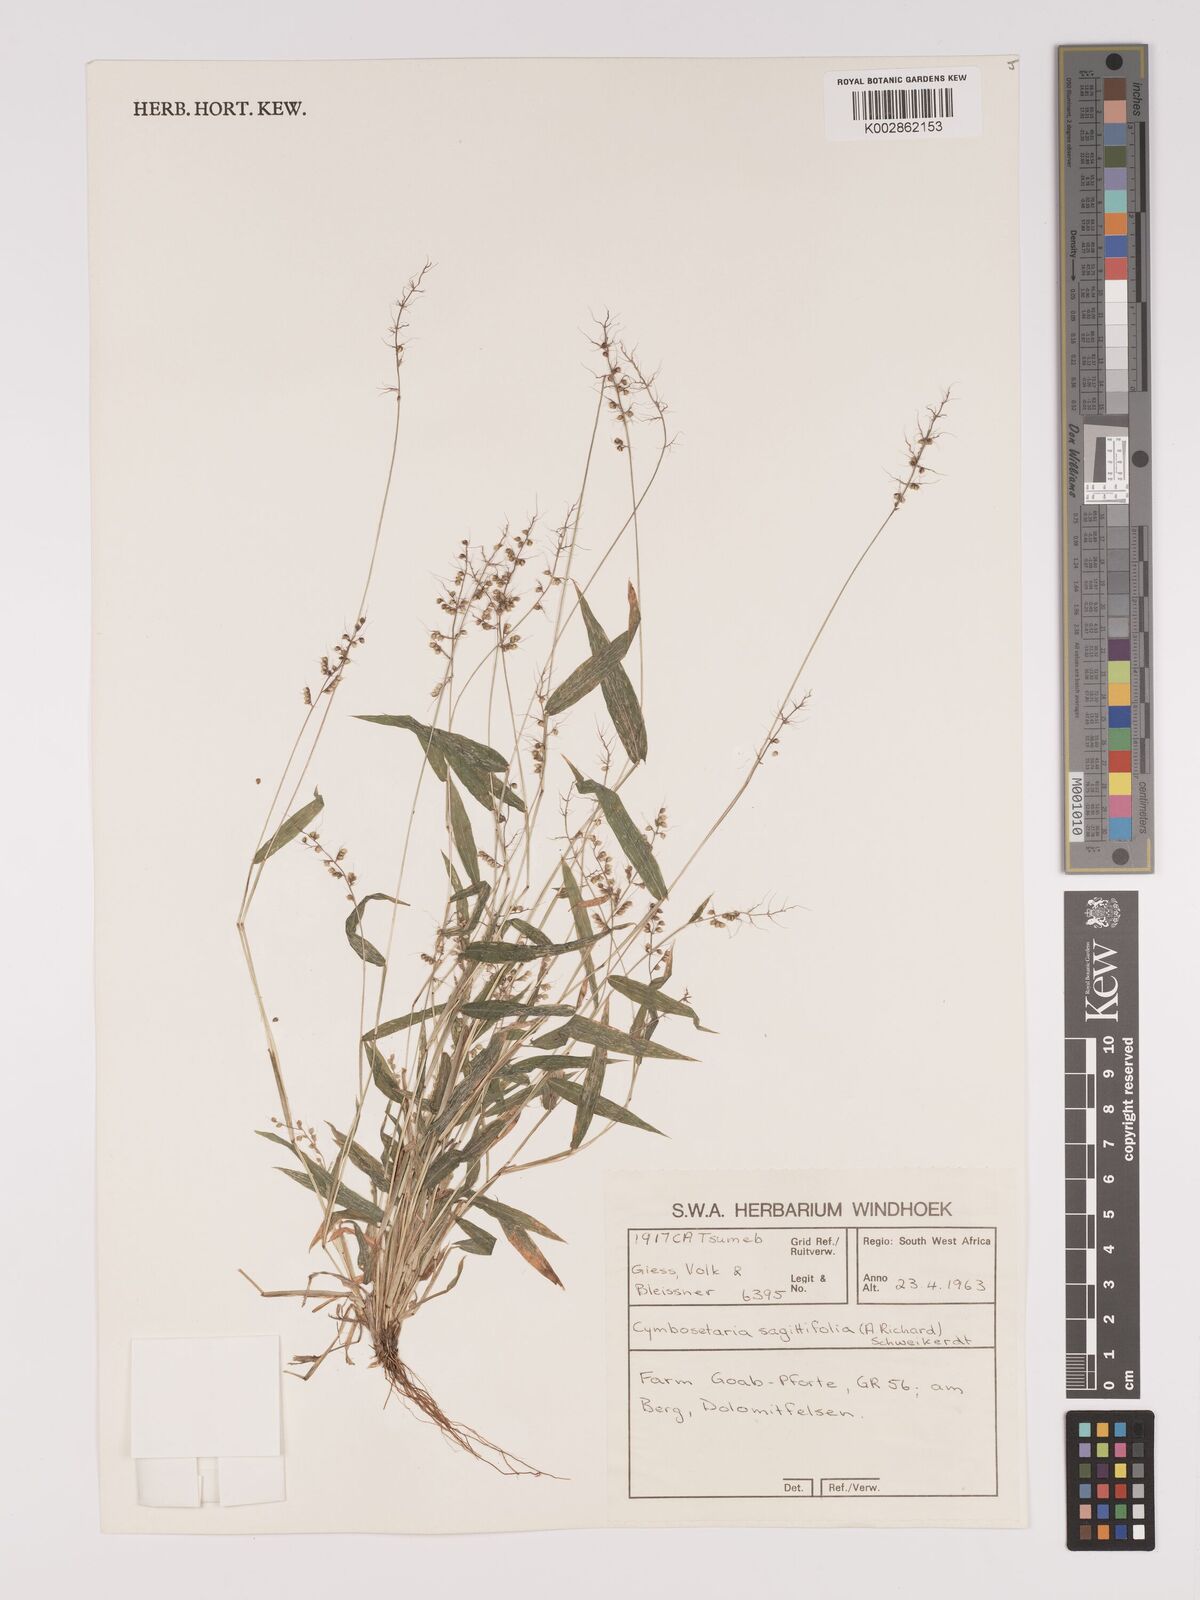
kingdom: Plantae
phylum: Tracheophyta
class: Liliopsida
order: Poales
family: Poaceae
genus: Setaria
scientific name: Setaria sagittifolia
